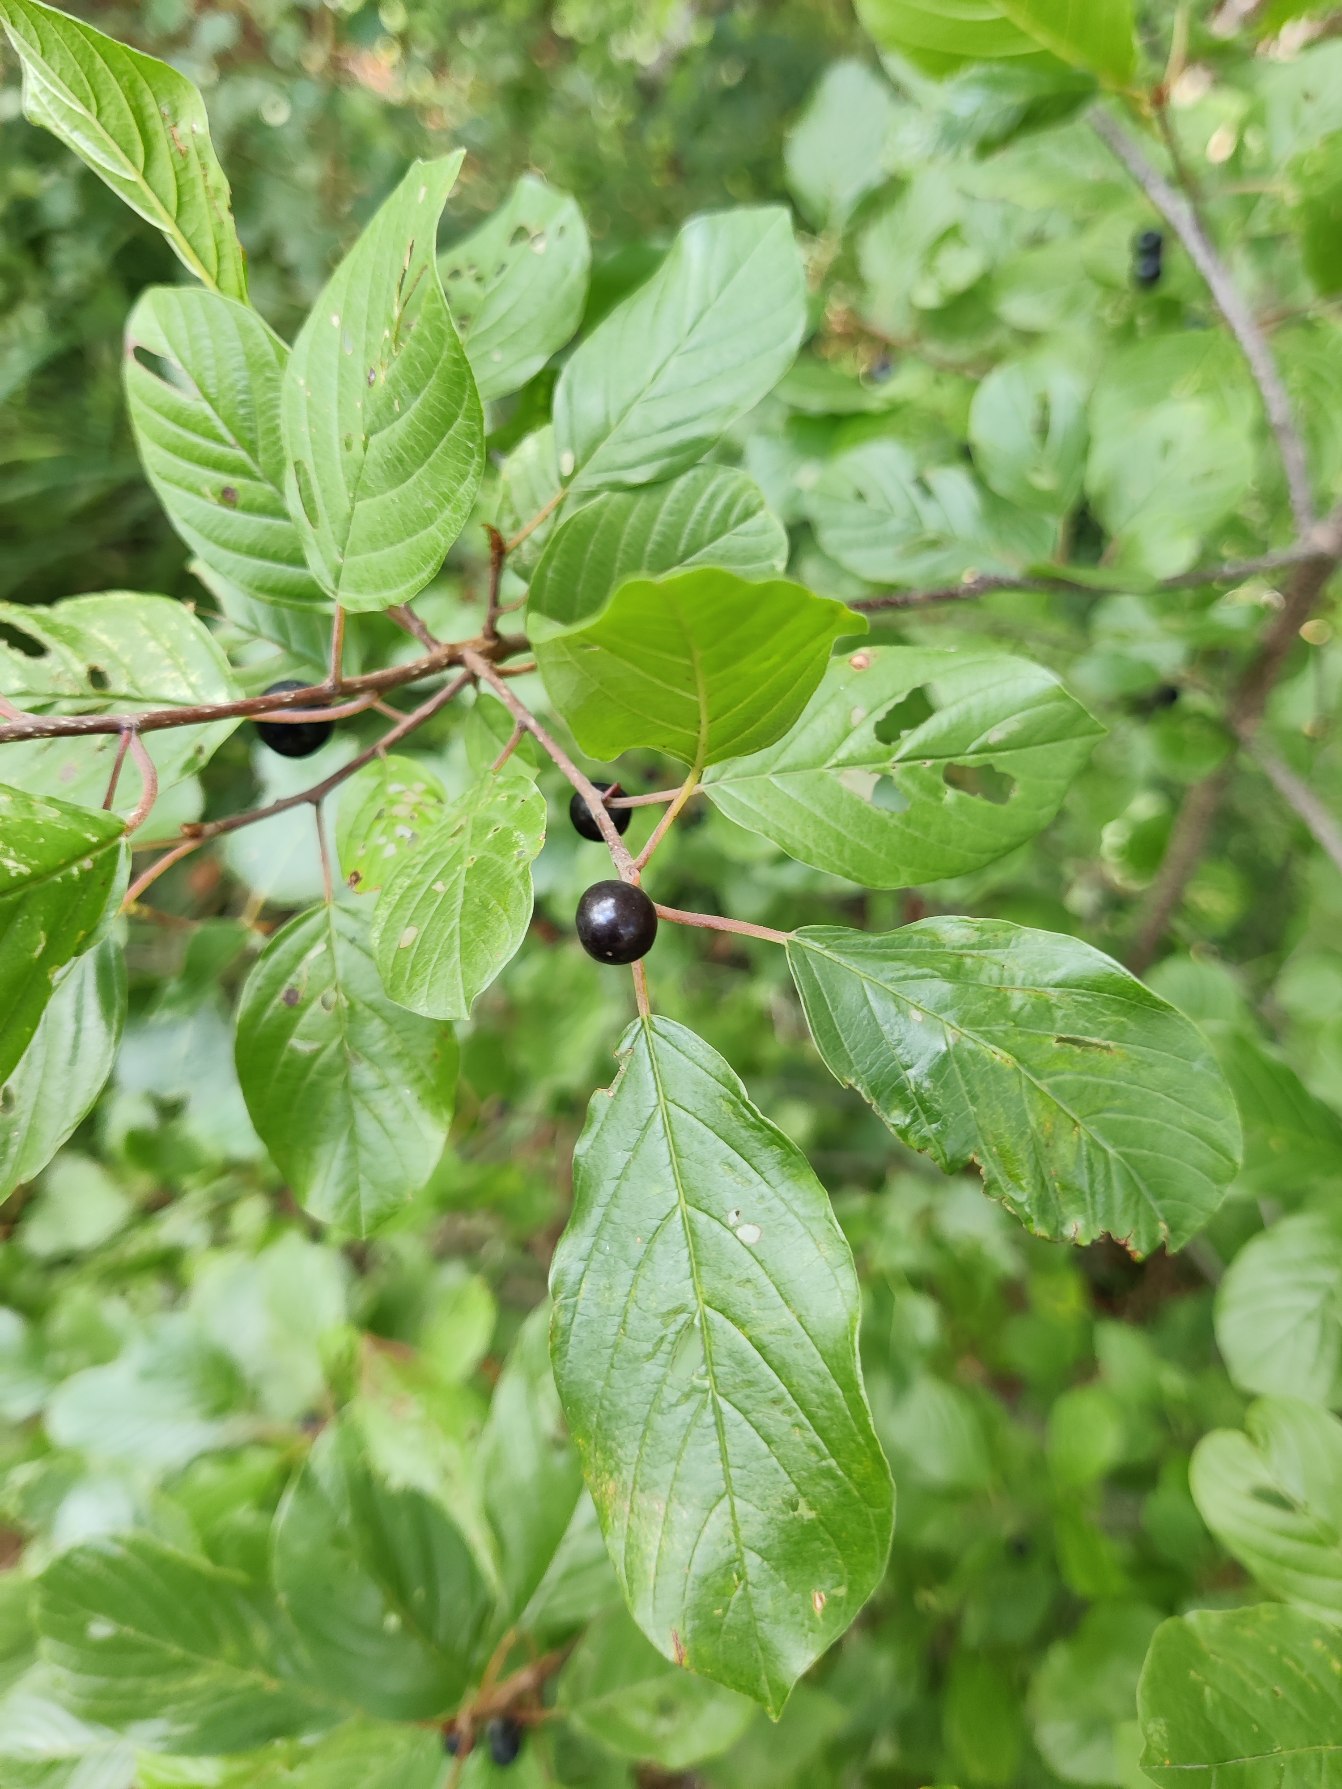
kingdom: Plantae
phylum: Tracheophyta
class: Magnoliopsida
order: Rosales
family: Rhamnaceae
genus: Frangula
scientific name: Frangula alnus
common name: Tørst
